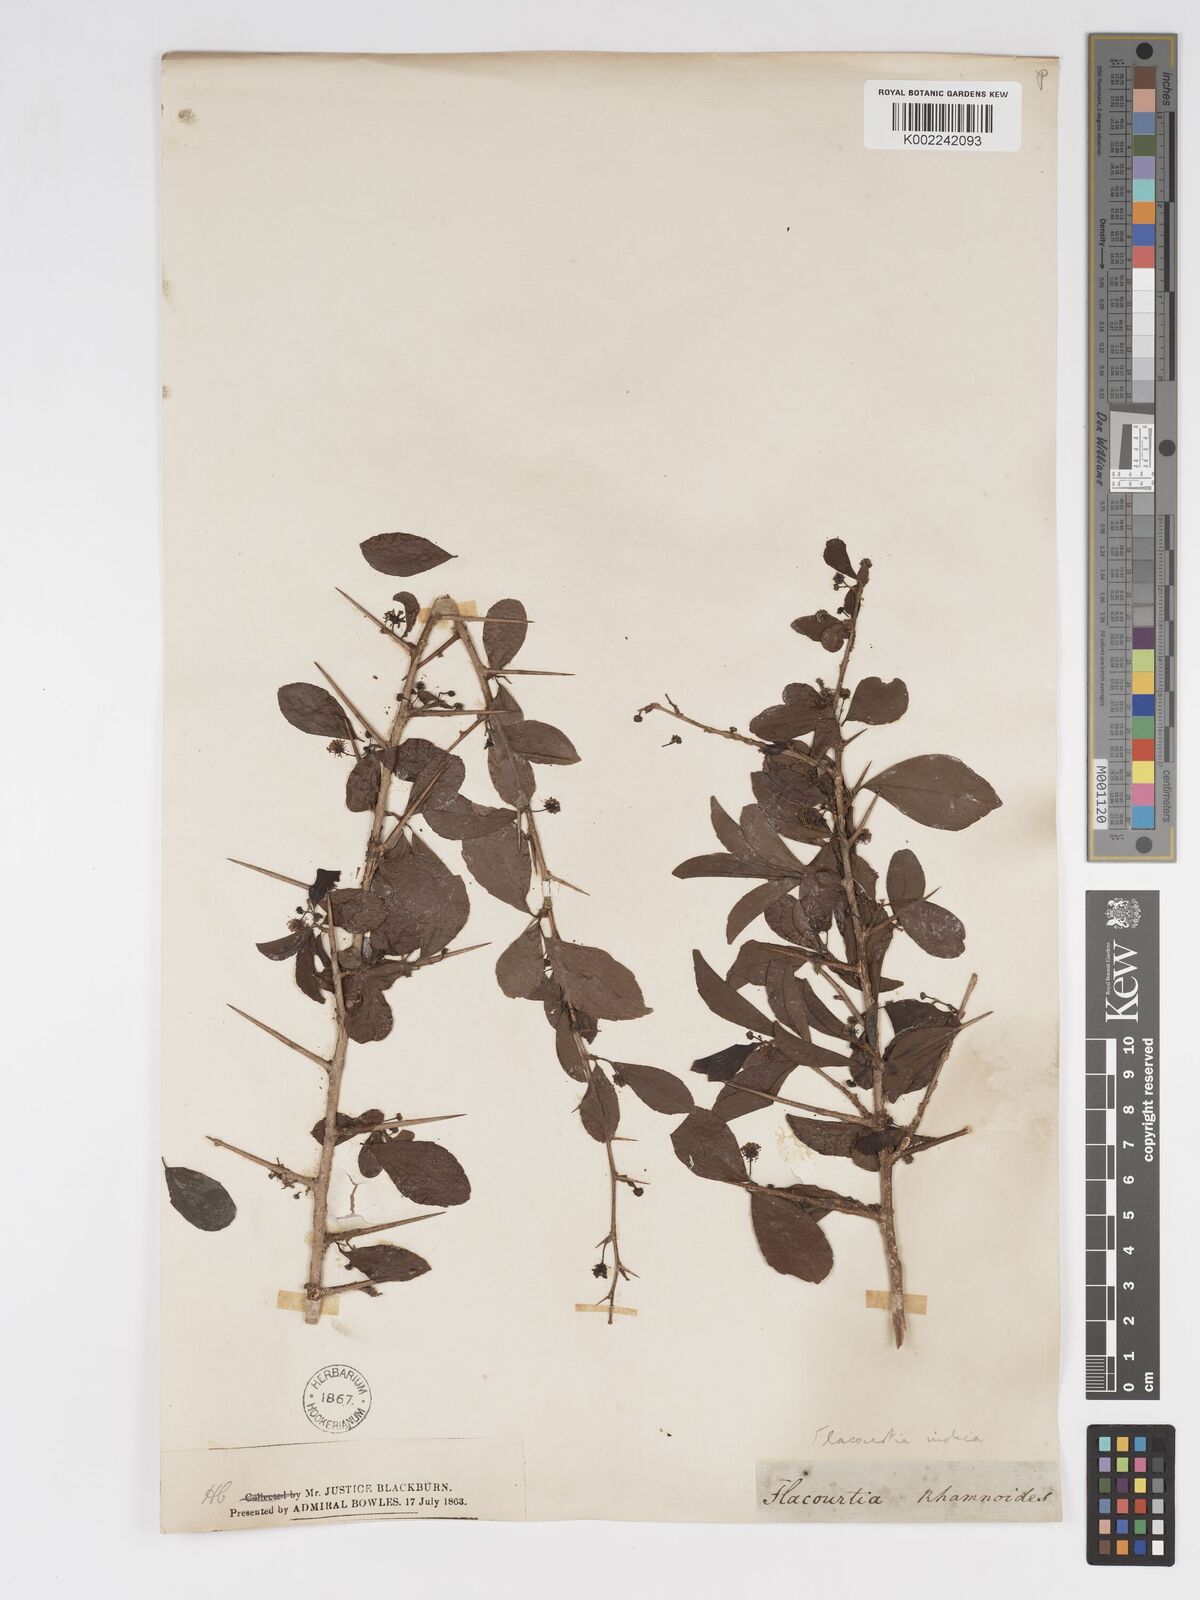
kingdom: Plantae
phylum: Tracheophyta
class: Magnoliopsida
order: Malpighiales
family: Salicaceae
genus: Flacourtia
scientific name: Flacourtia indica
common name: Governor's plum
